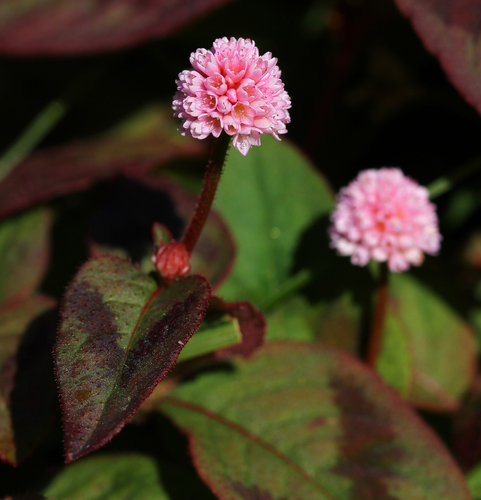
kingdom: Plantae
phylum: Tracheophyta
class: Magnoliopsida
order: Caryophyllales
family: Polygonaceae
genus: Persicaria
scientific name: Persicaria capitata
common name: Pinkhead smartweed
